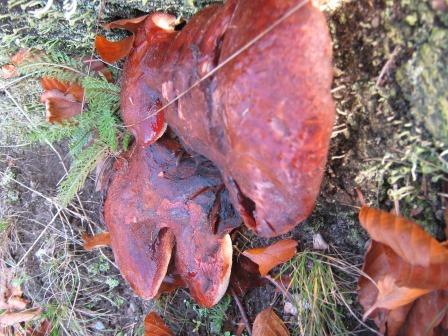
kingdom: Fungi
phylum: Basidiomycota
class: Agaricomycetes
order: Agaricales
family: Fistulinaceae
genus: Fistulina
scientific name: Fistulina hepatica
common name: oksetunge
